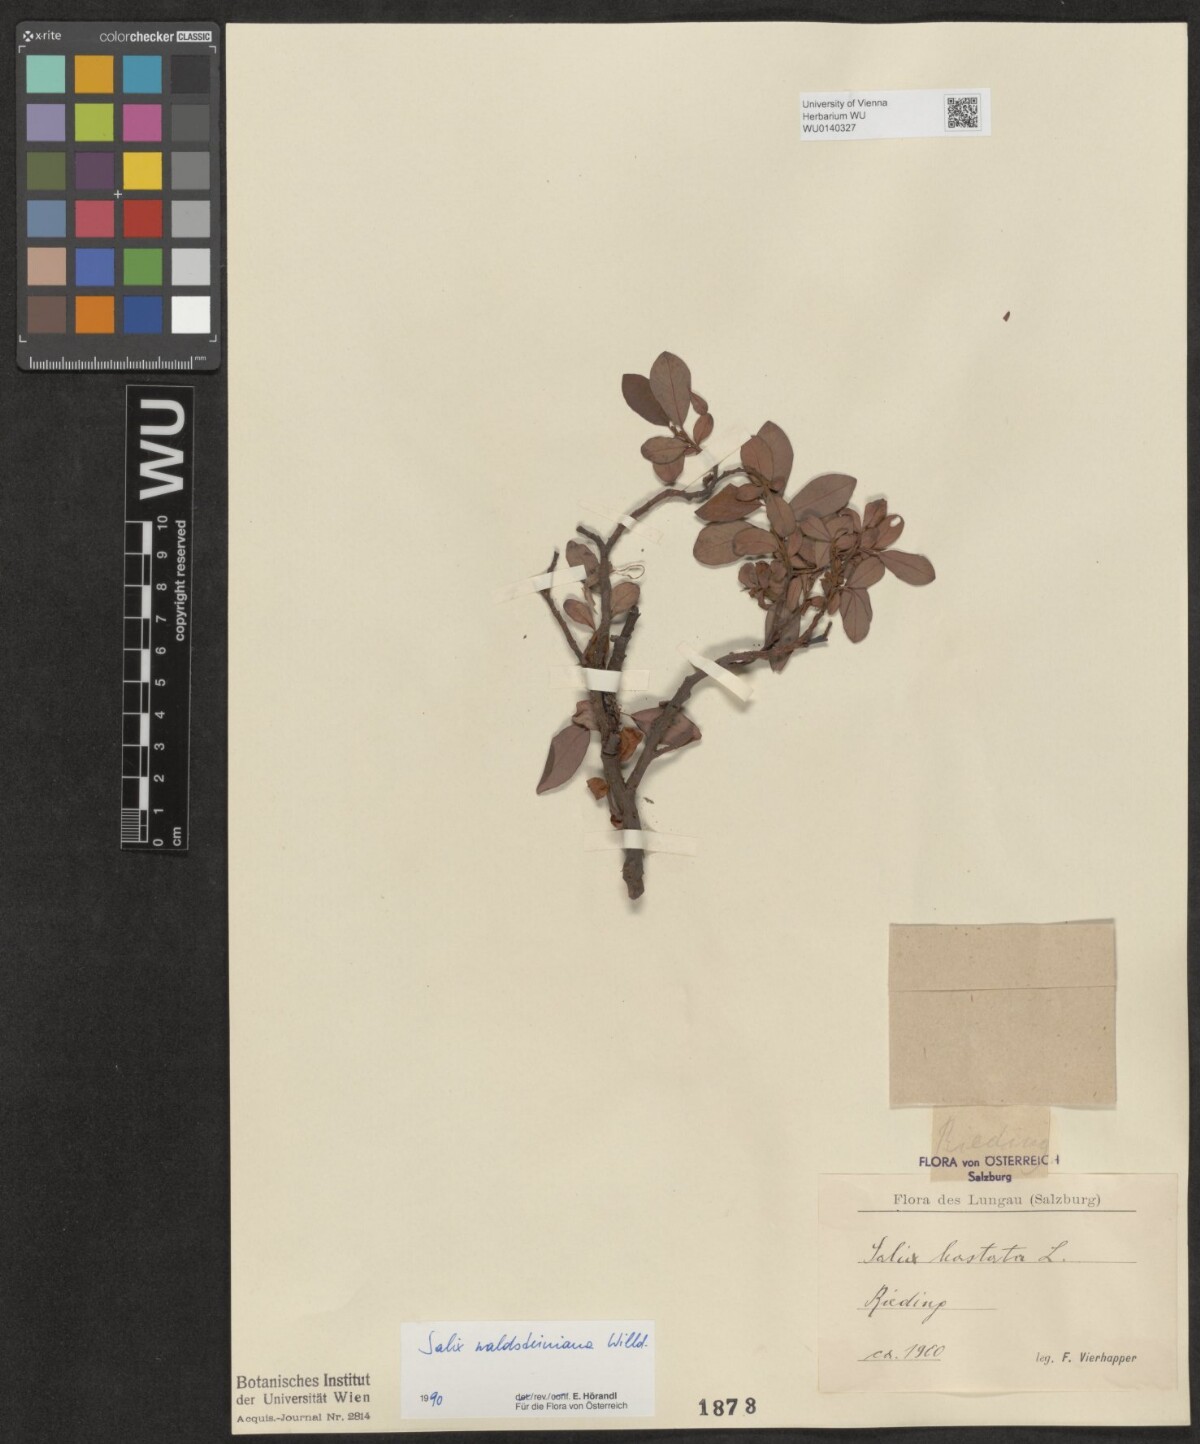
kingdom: Plantae
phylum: Tracheophyta
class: Magnoliopsida
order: Malpighiales
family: Salicaceae
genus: Salix
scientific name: Salix waldsteiniana
